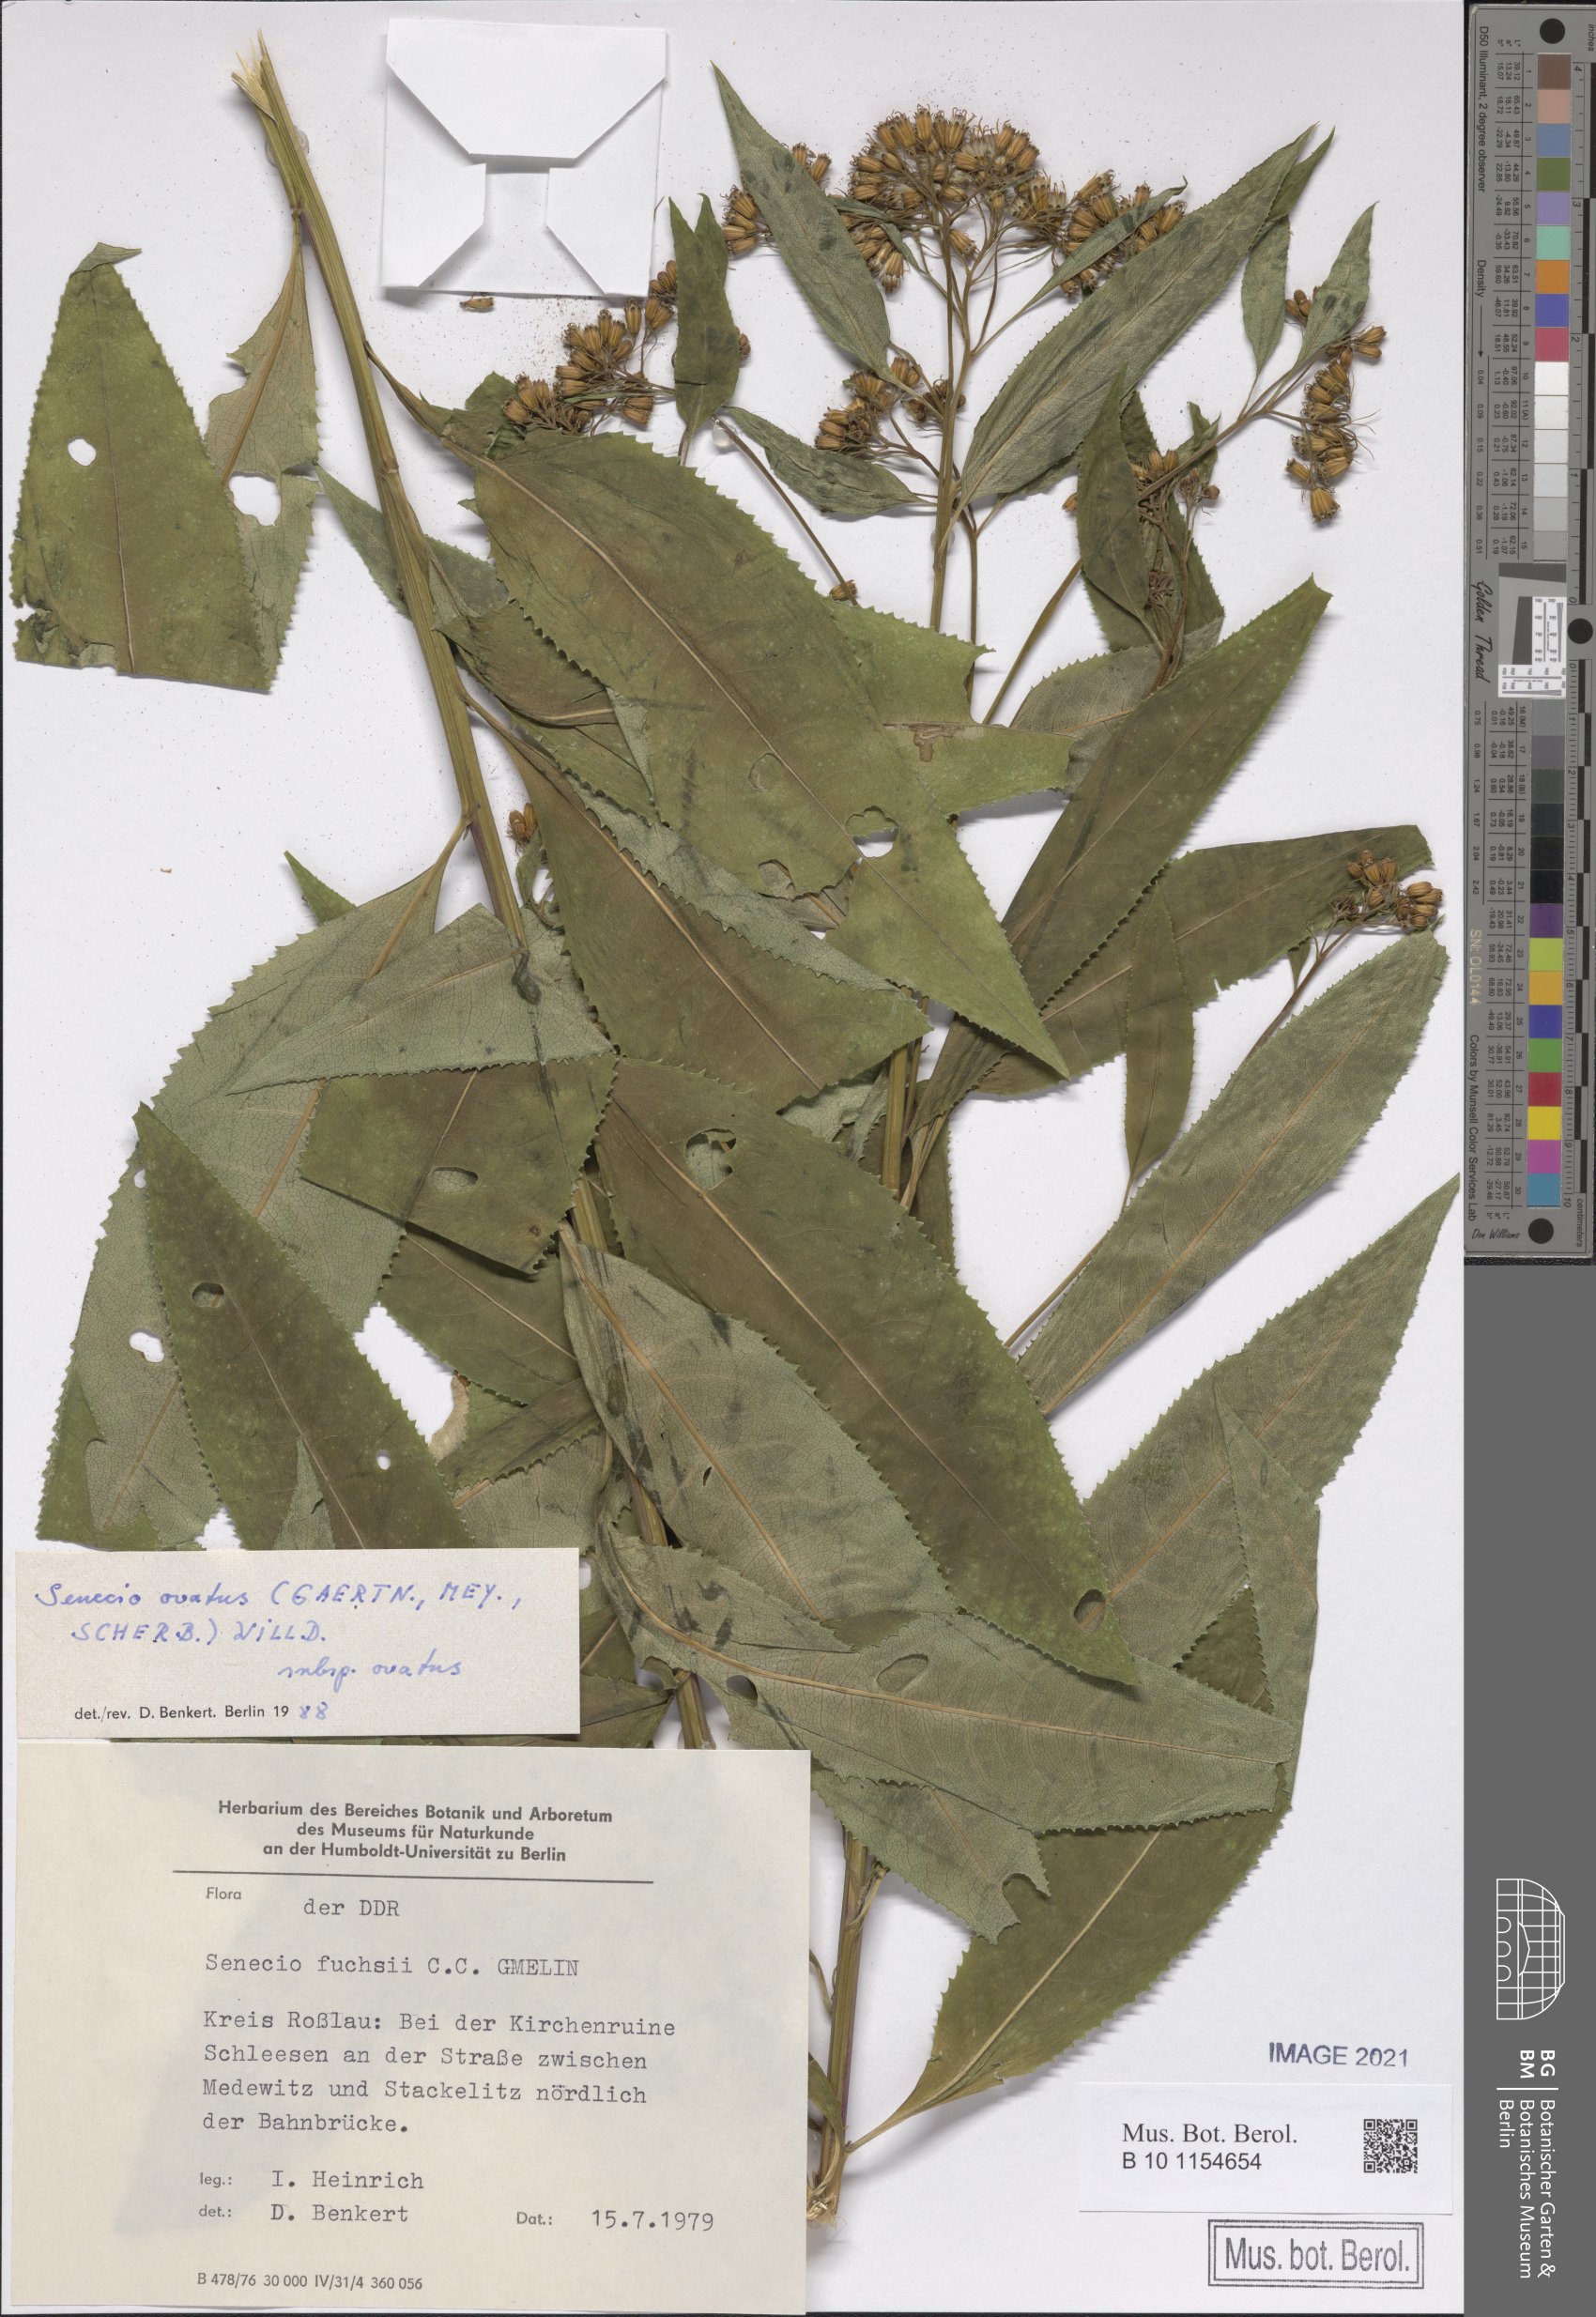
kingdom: Plantae
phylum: Tracheophyta
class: Magnoliopsida
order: Asterales
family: Asteraceae
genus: Senecio
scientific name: Senecio ovatus
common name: Wood ragwort
